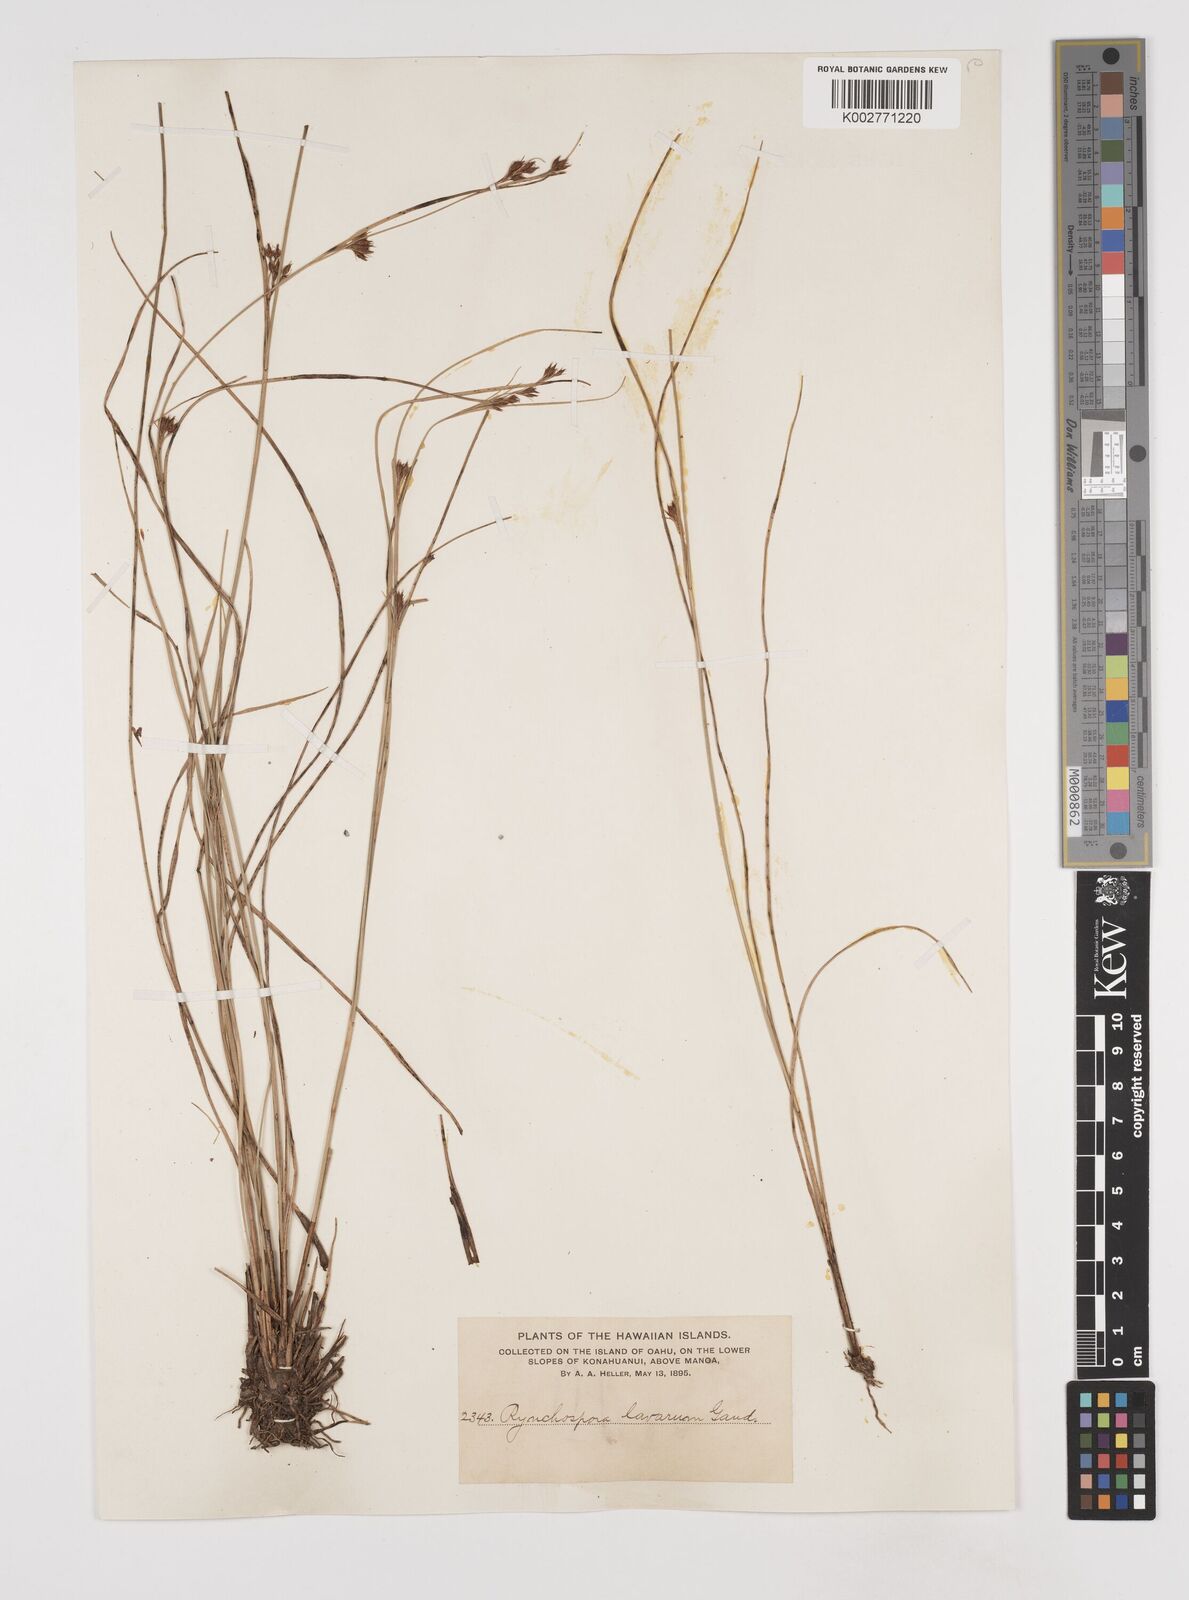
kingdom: Plantae
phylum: Tracheophyta
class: Liliopsida
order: Poales
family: Cyperaceae
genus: Rhynchospora
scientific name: Rhynchospora rugosa
